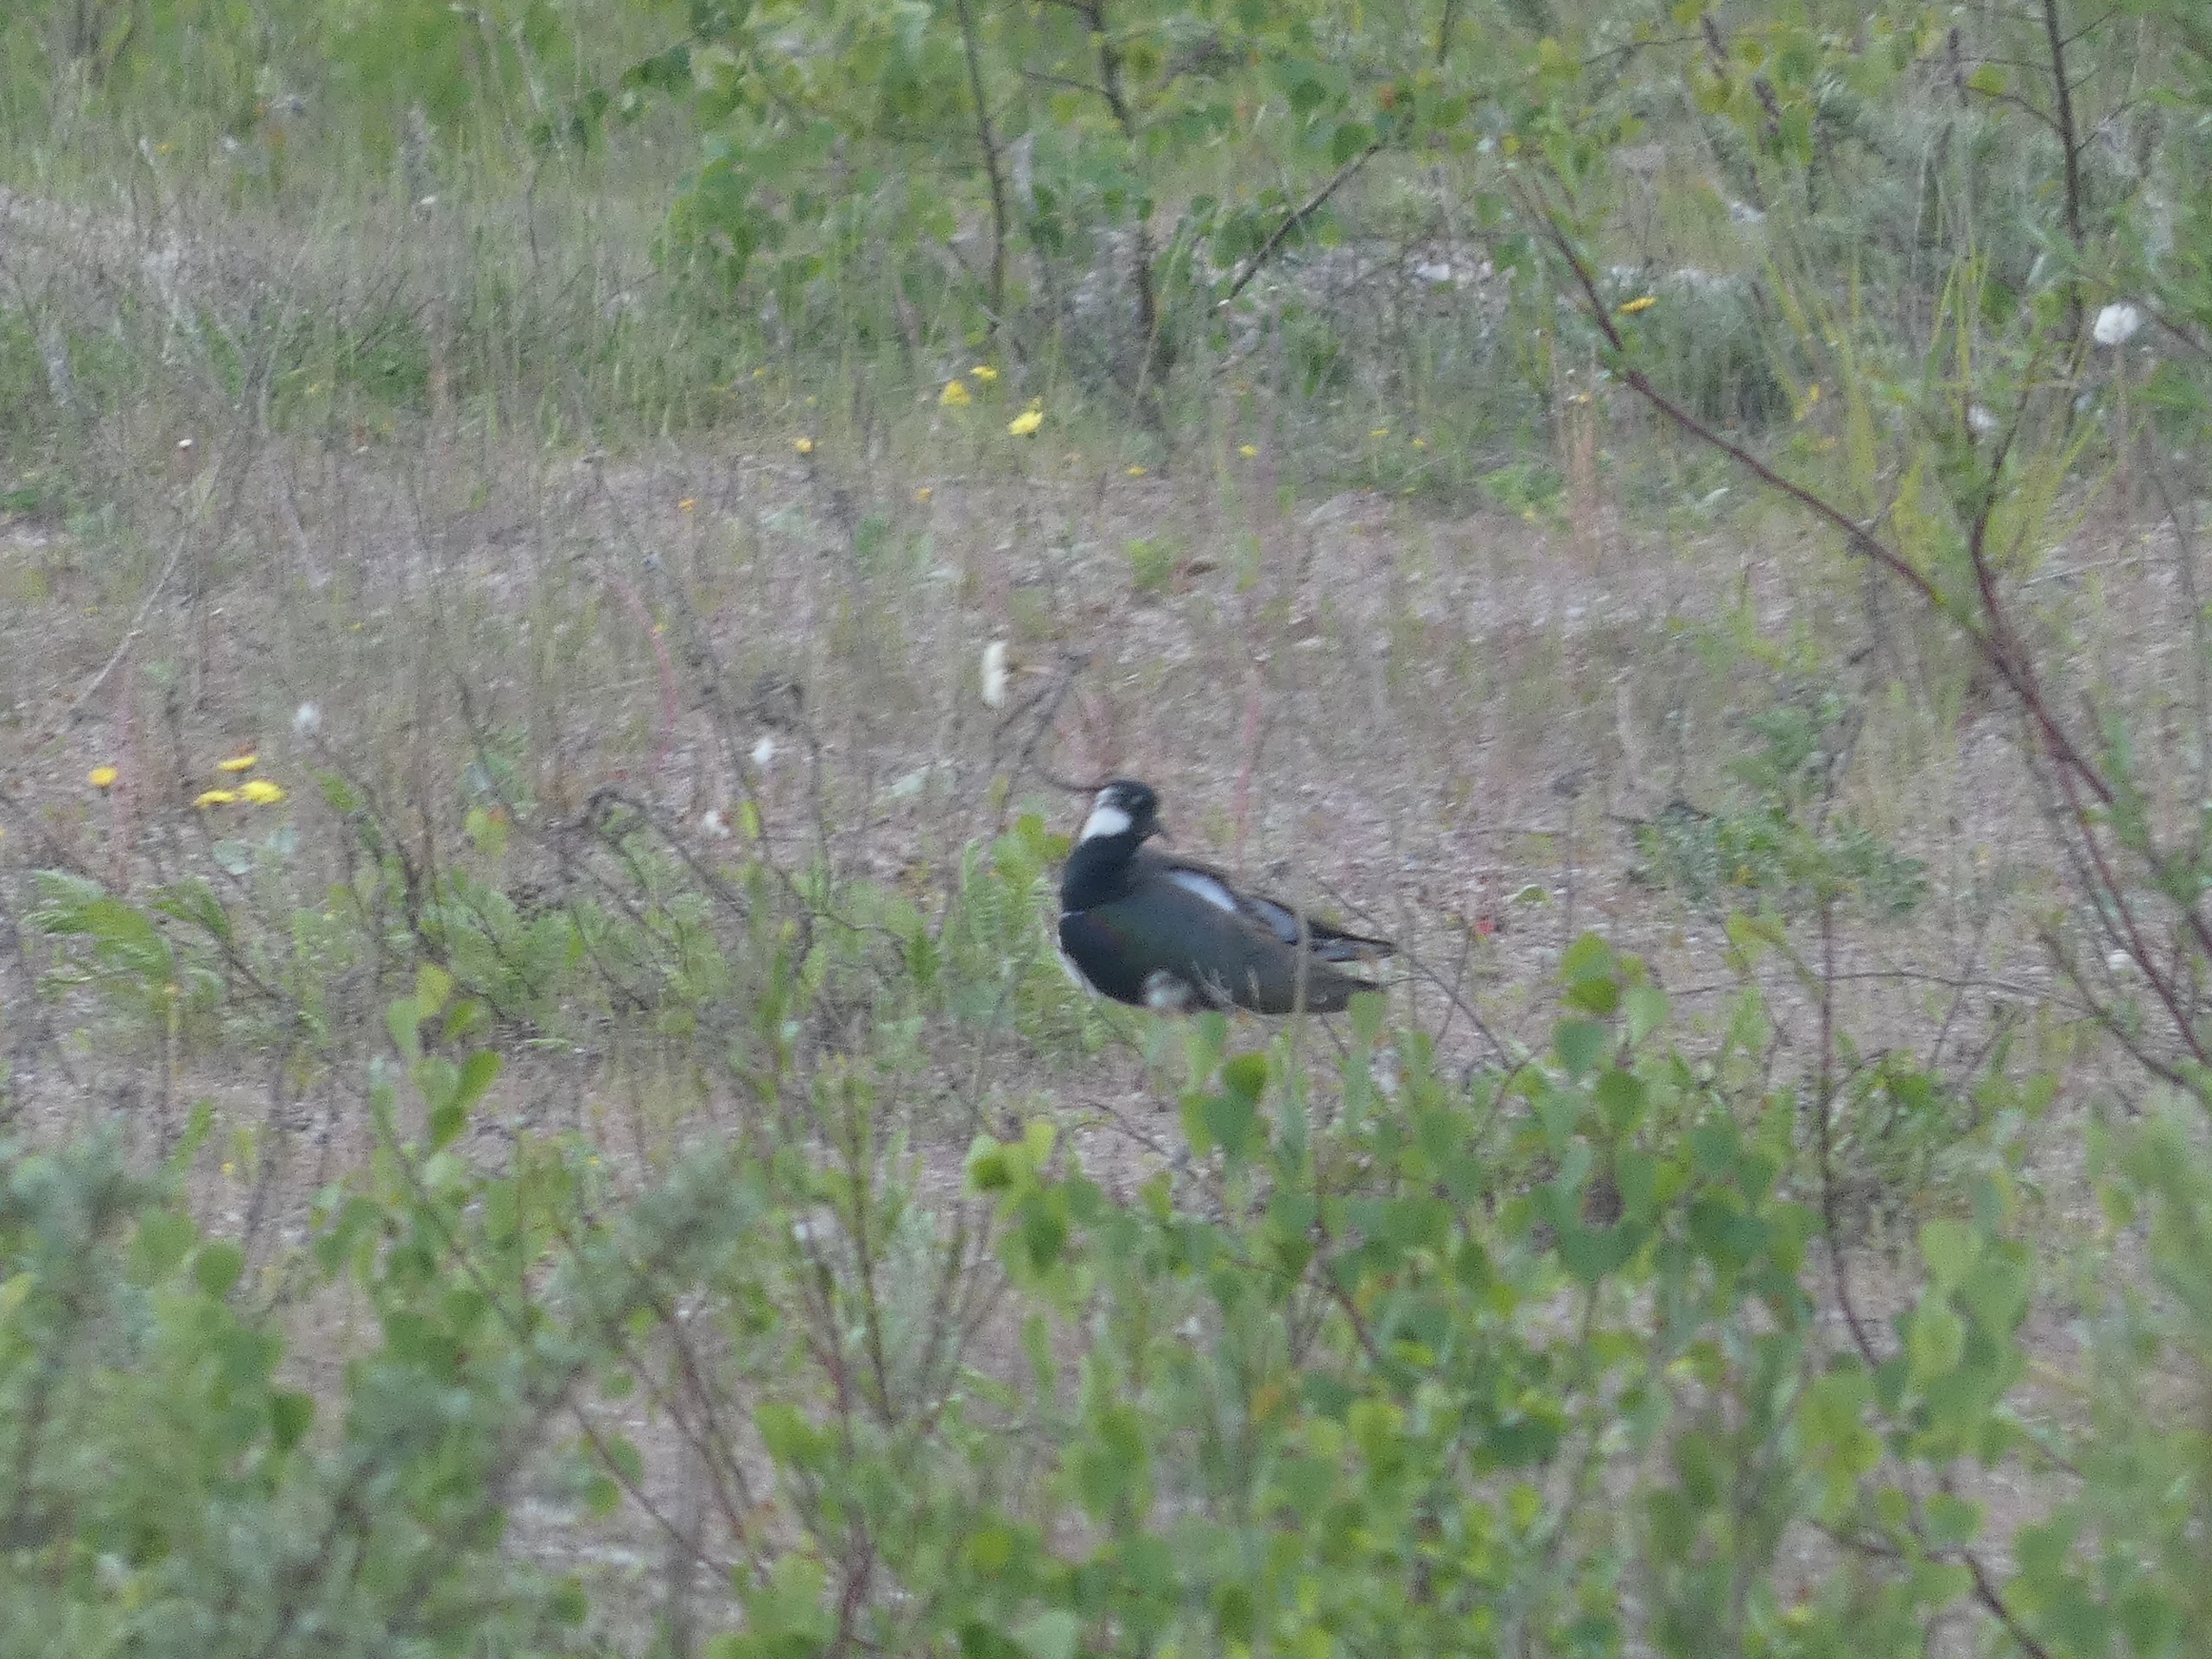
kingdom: Animalia
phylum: Chordata
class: Aves
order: Charadriiformes
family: Charadriidae
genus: Vanellus
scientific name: Vanellus vanellus
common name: Vibe
